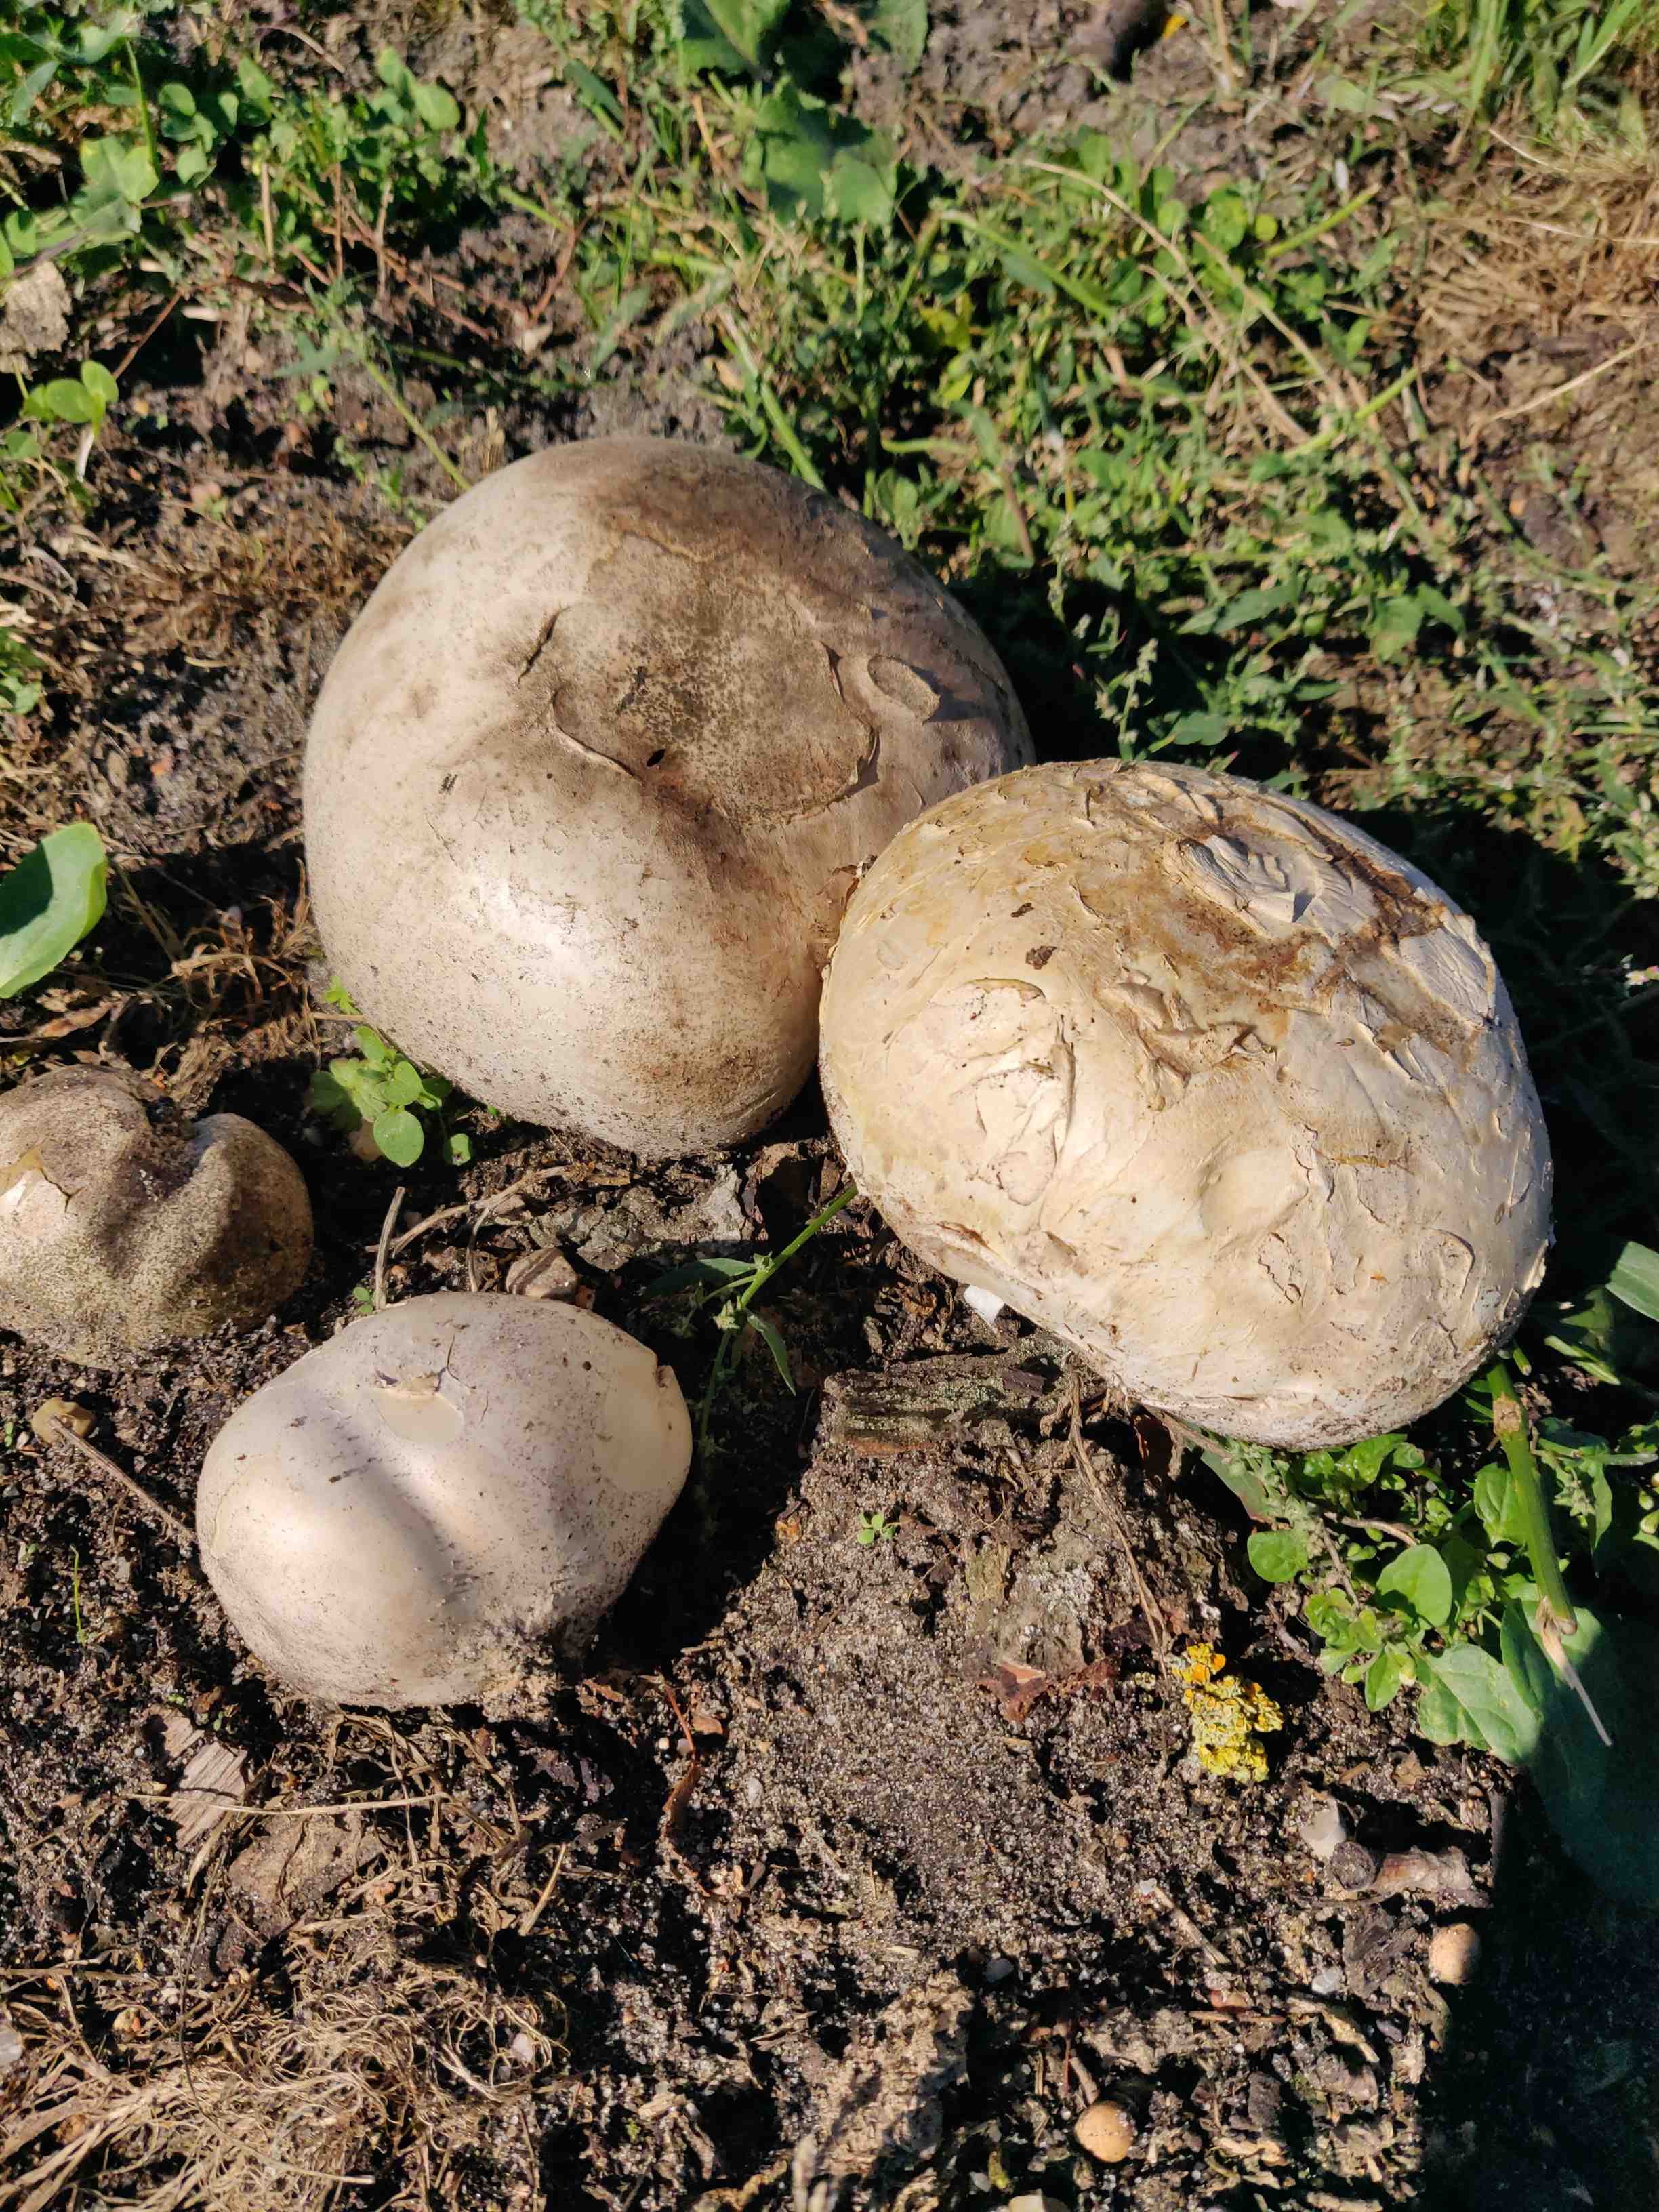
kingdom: Fungi
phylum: Basidiomycota
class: Agaricomycetes
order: Agaricales
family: Lycoperdaceae
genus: Calvatia
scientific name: Calvatia gigantea
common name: kæmpestøvbold
